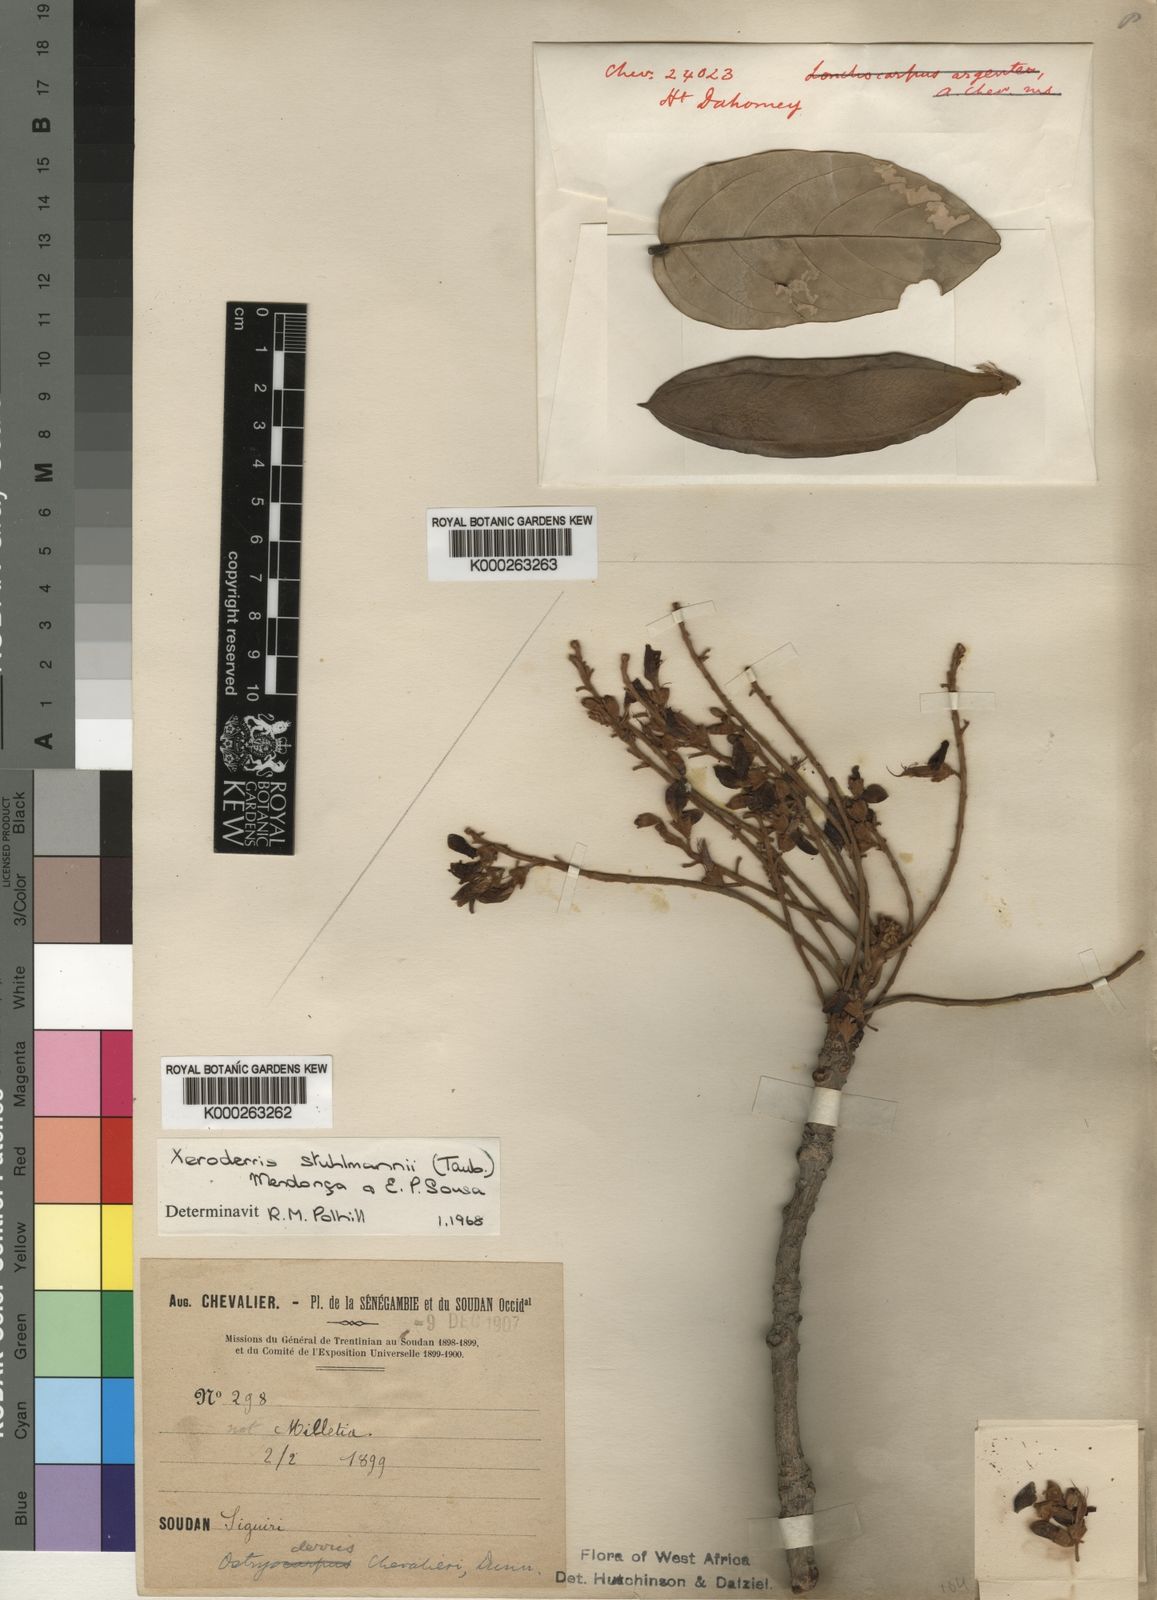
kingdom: Plantae
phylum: Tracheophyta
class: Magnoliopsida
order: Fabales
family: Fabaceae
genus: Aganope
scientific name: Aganope stuhlmannii
